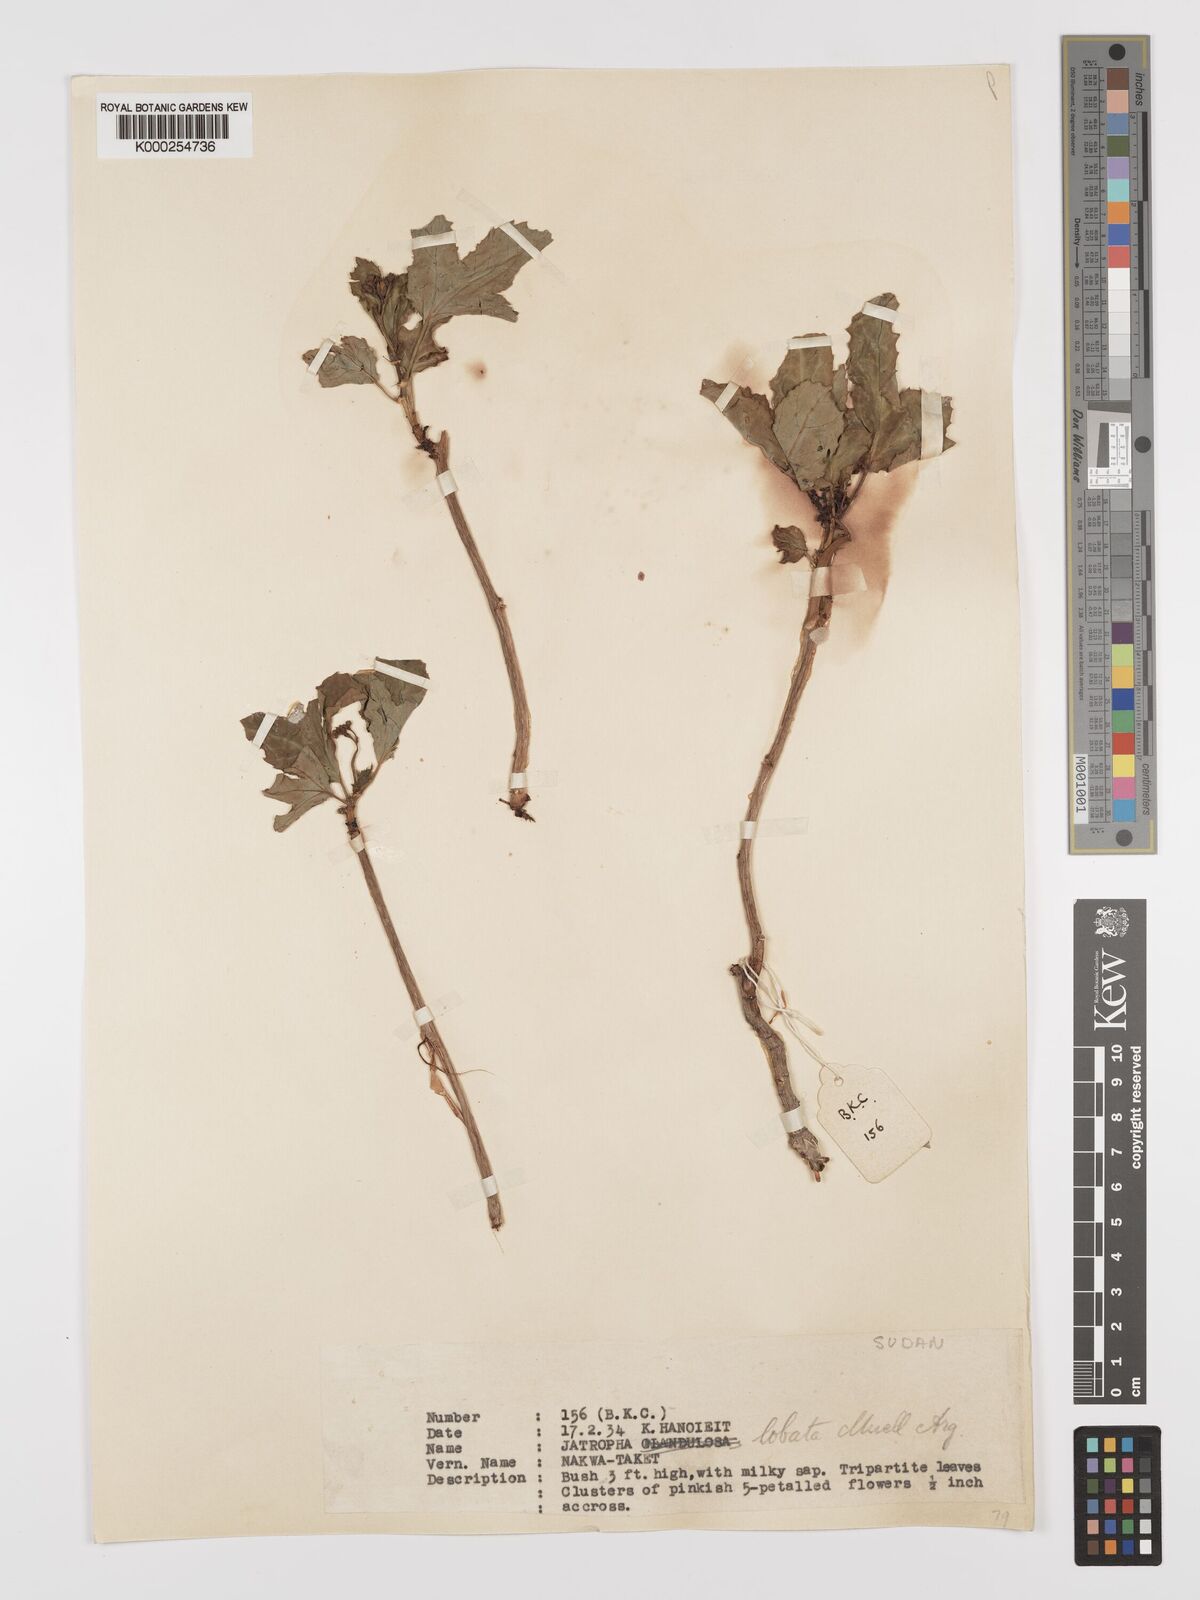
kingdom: Plantae
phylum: Tracheophyta
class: Magnoliopsida
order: Malpighiales
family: Euphorbiaceae
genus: Jatropha
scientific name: Jatropha glauca
